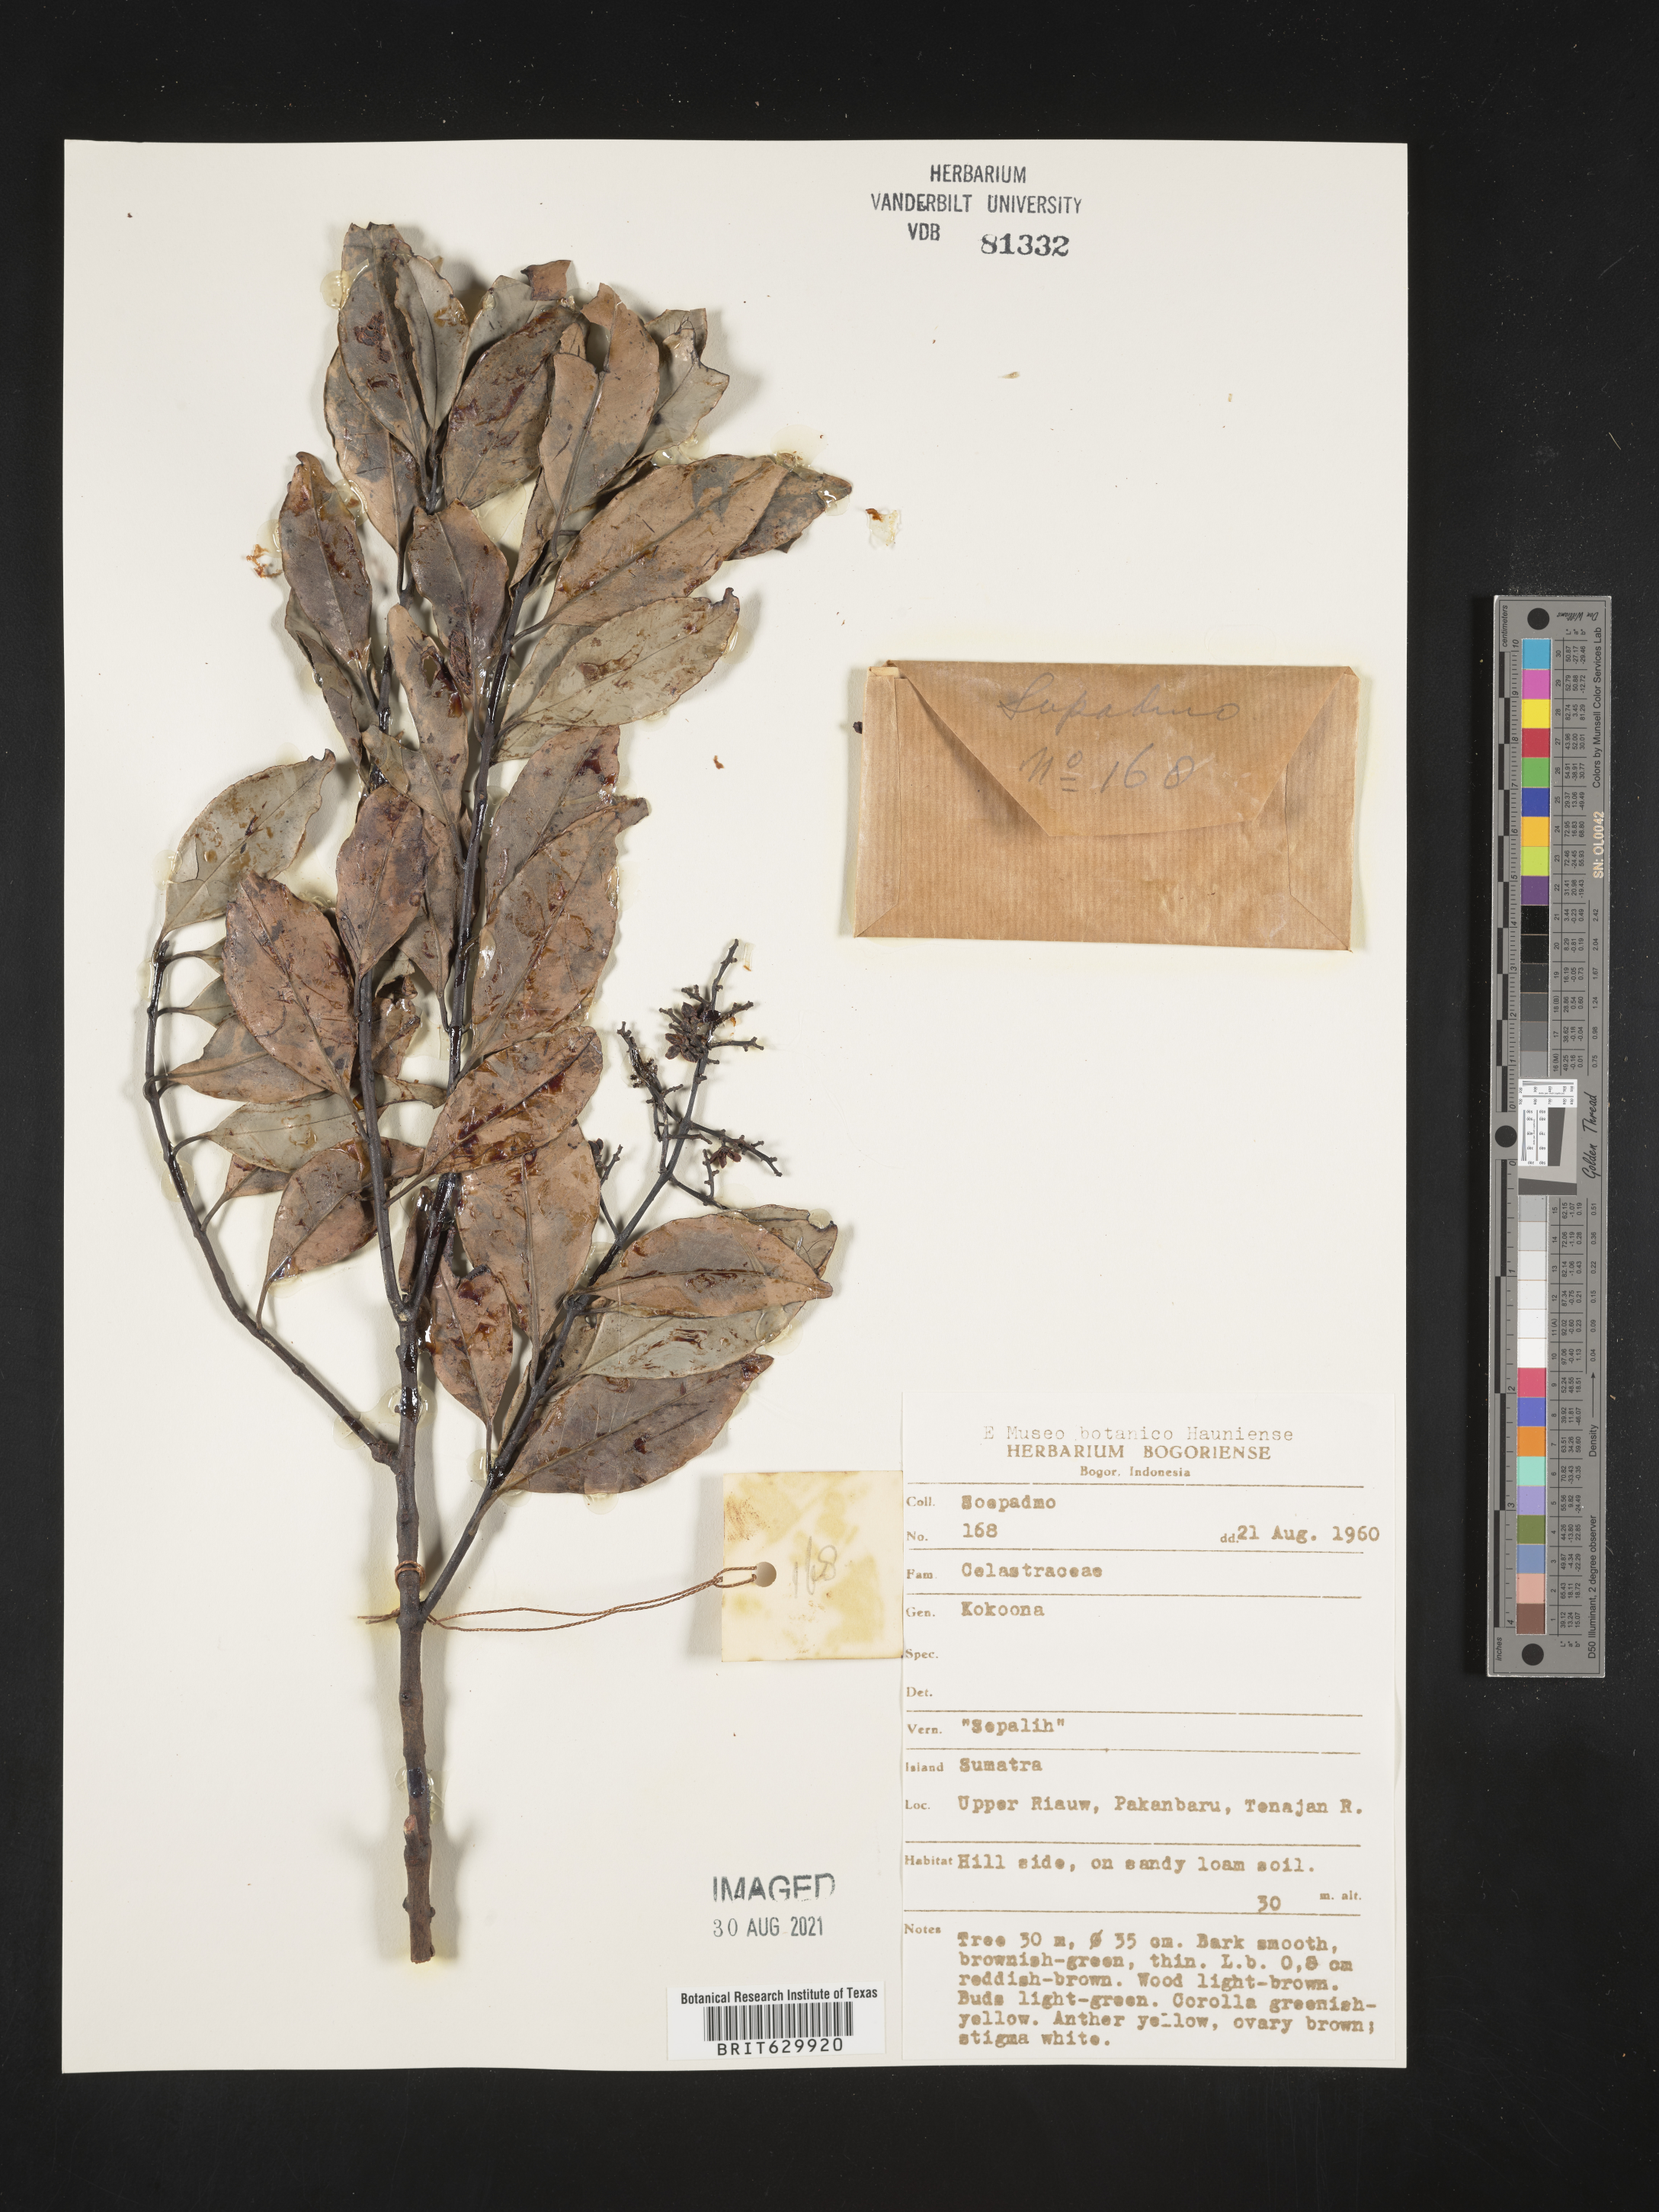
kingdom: Plantae
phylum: Tracheophyta
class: Magnoliopsida
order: Celastrales
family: Celastraceae
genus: Kokoona
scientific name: Kokoona
